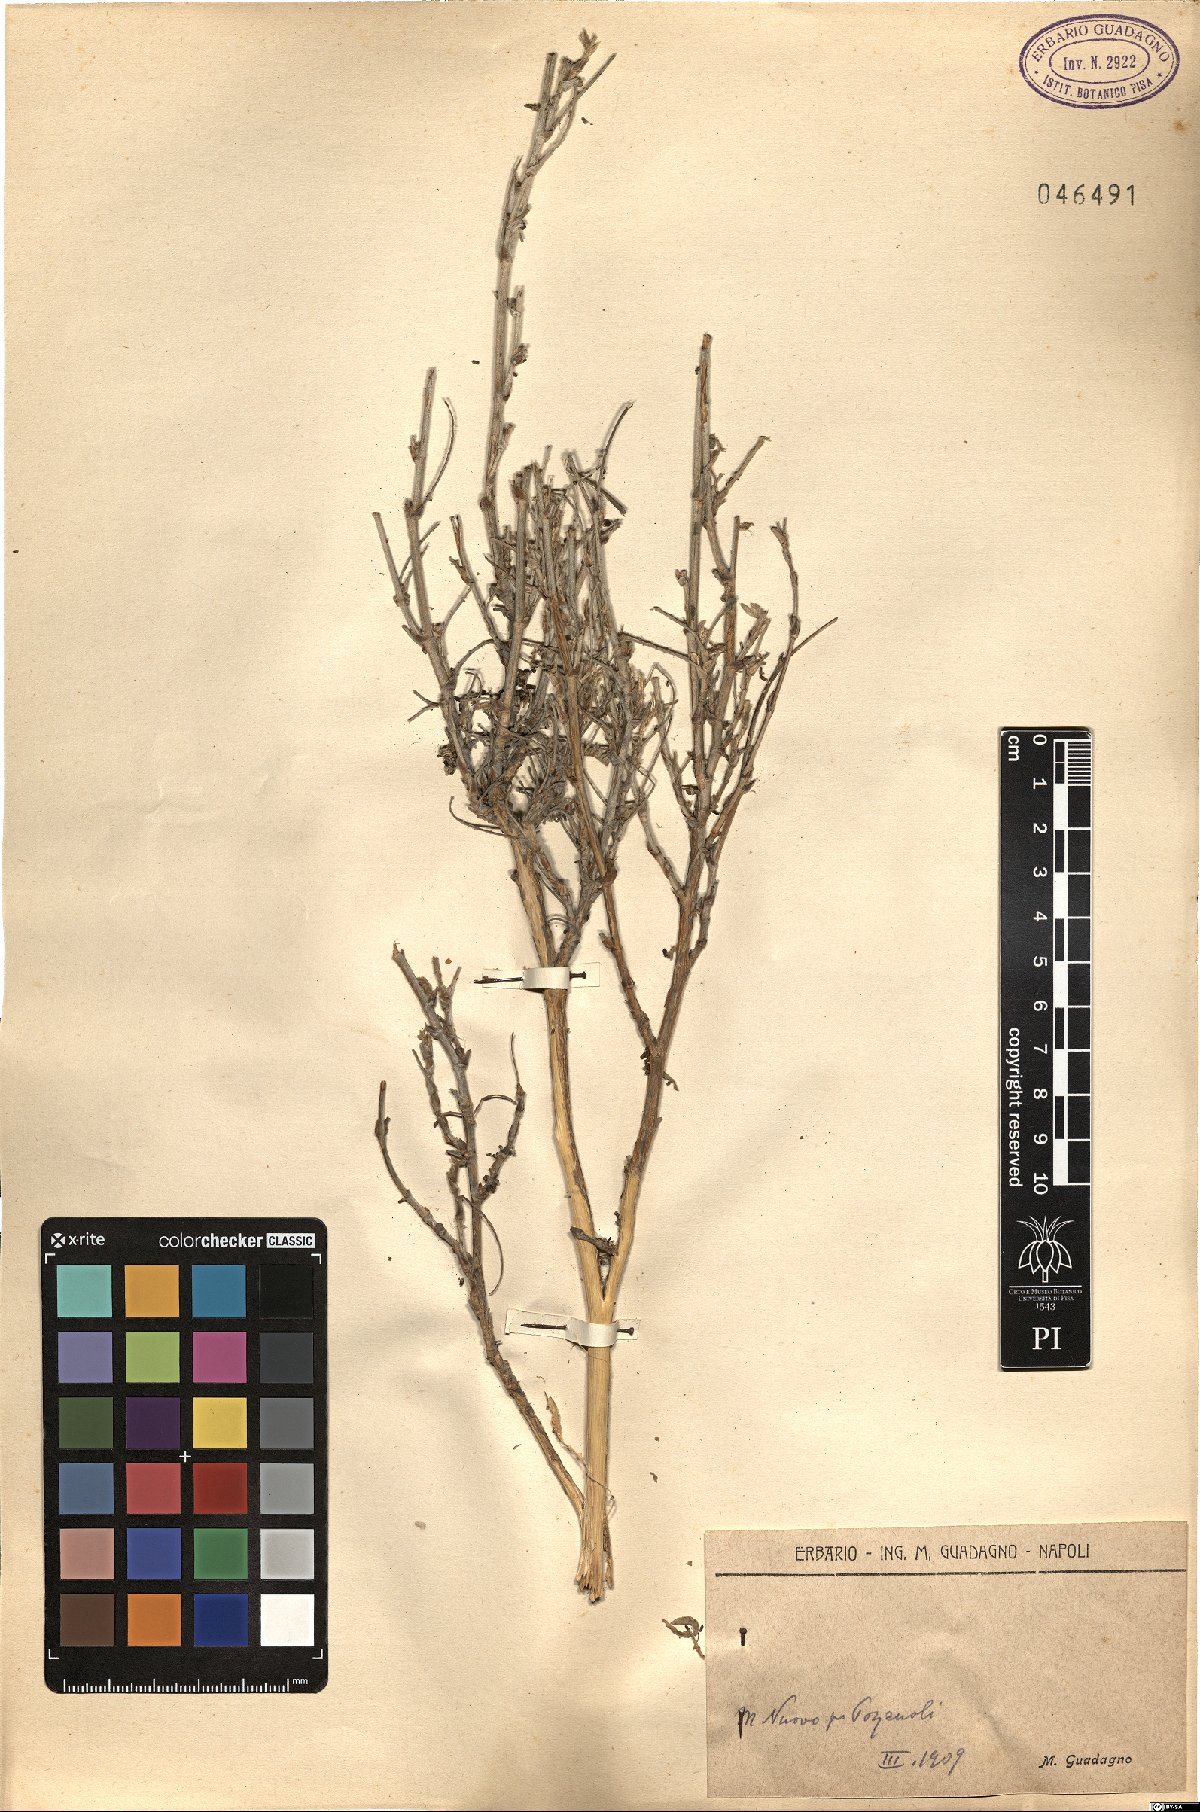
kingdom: Plantae
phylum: Tracheophyta
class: Magnoliopsida
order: Fabales
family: Fabaceae
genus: Anthyllis
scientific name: Anthyllis
